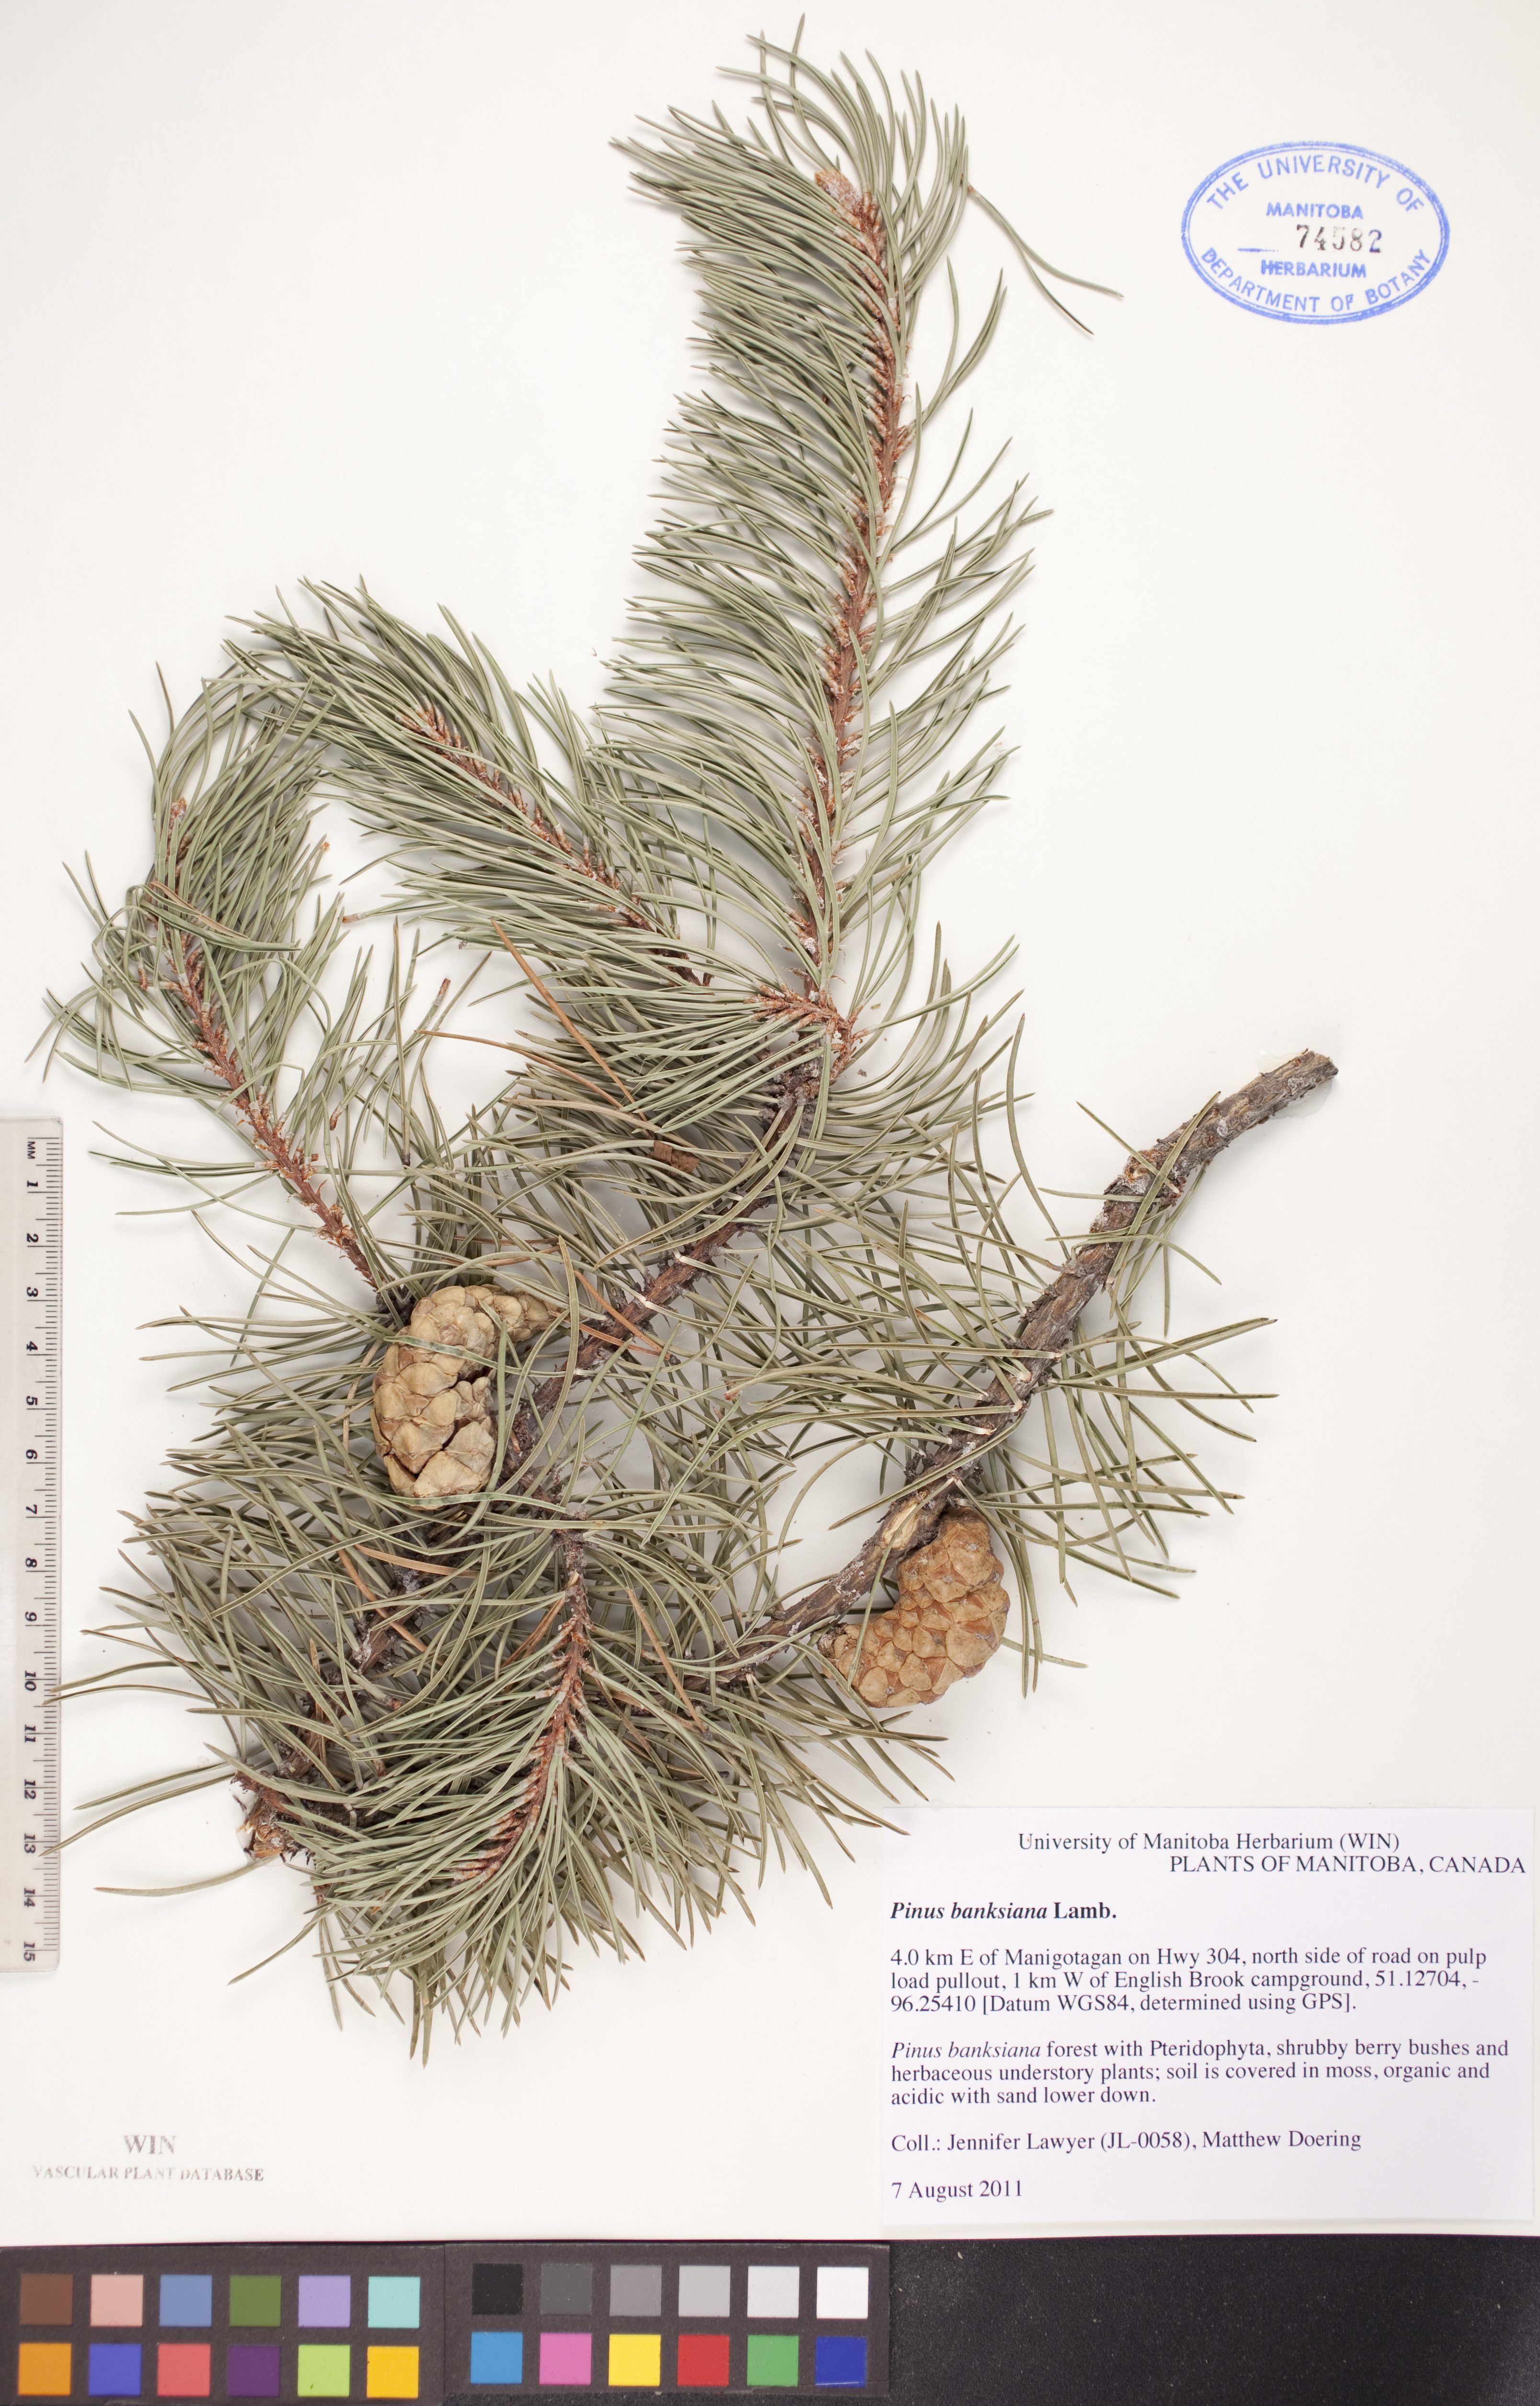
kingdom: Plantae
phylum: Tracheophyta
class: Pinopsida
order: Pinales
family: Pinaceae
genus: Pinus
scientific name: Pinus banksiana
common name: Jack pine
